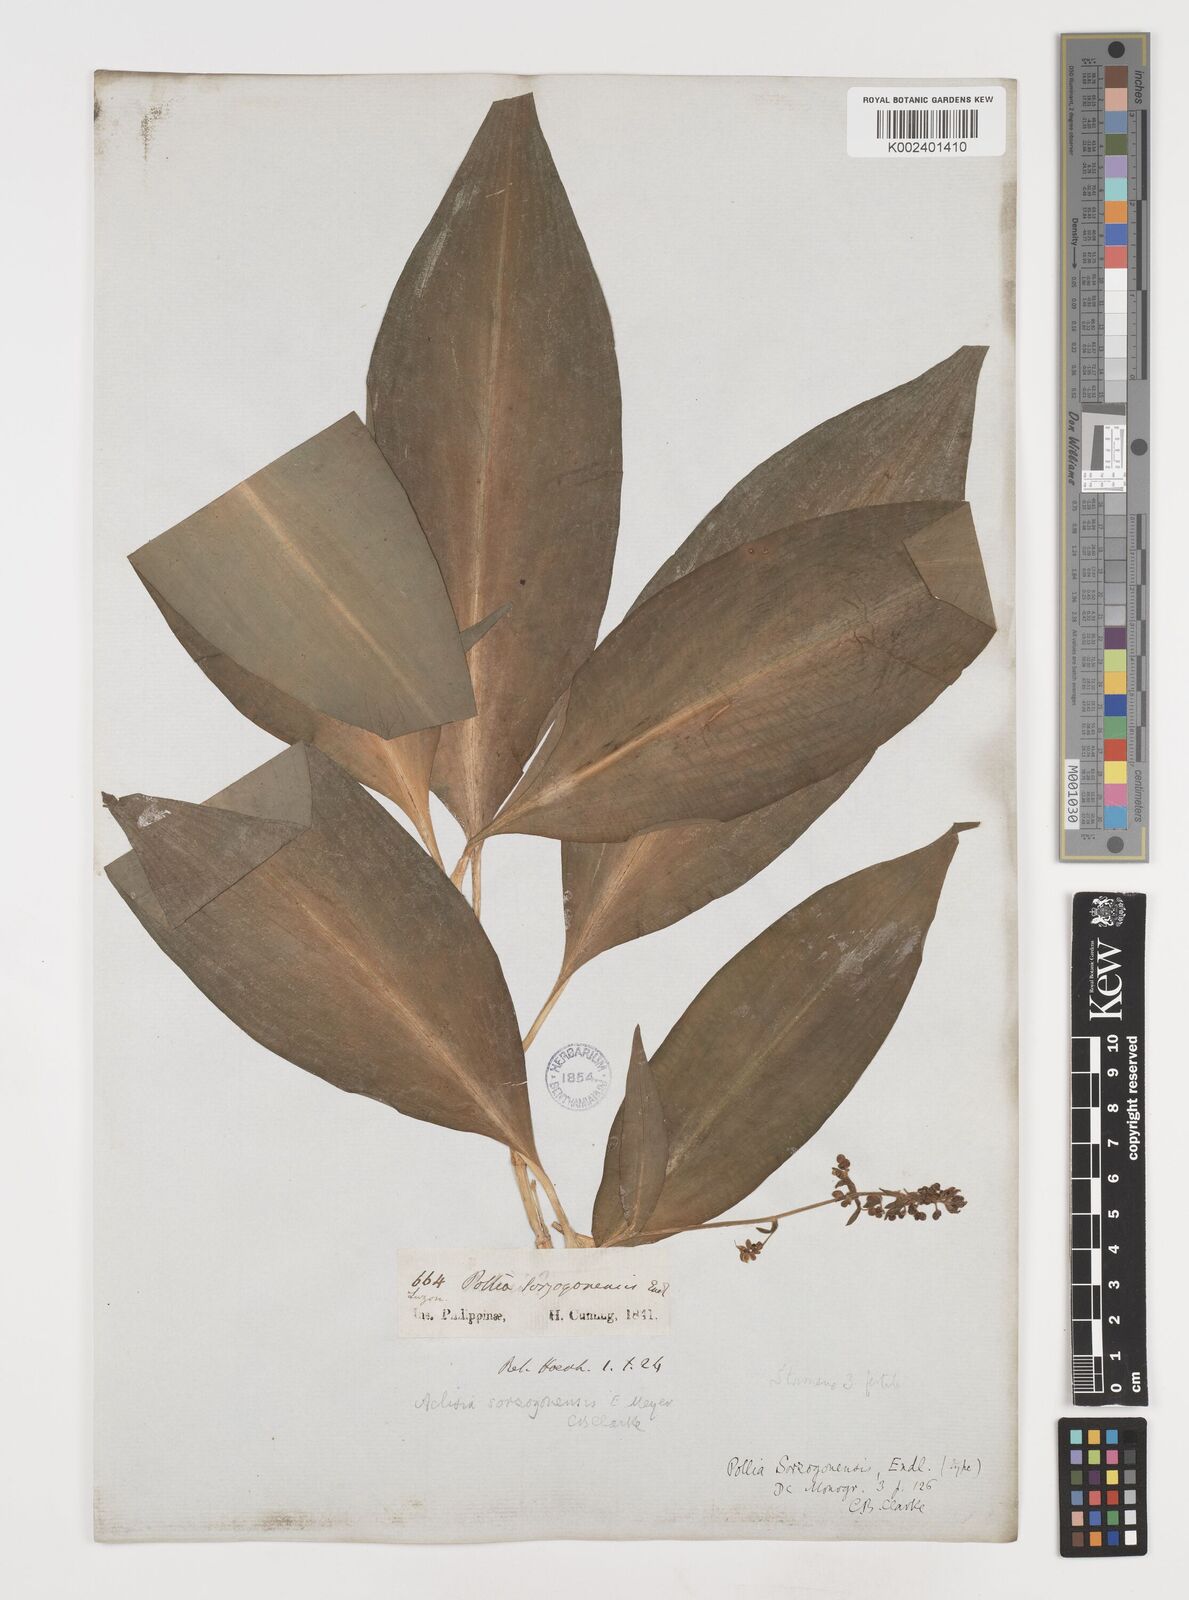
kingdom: Plantae
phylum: Tracheophyta
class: Liliopsida
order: Commelinales
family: Commelinaceae
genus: Pollia
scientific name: Pollia secundiflora
